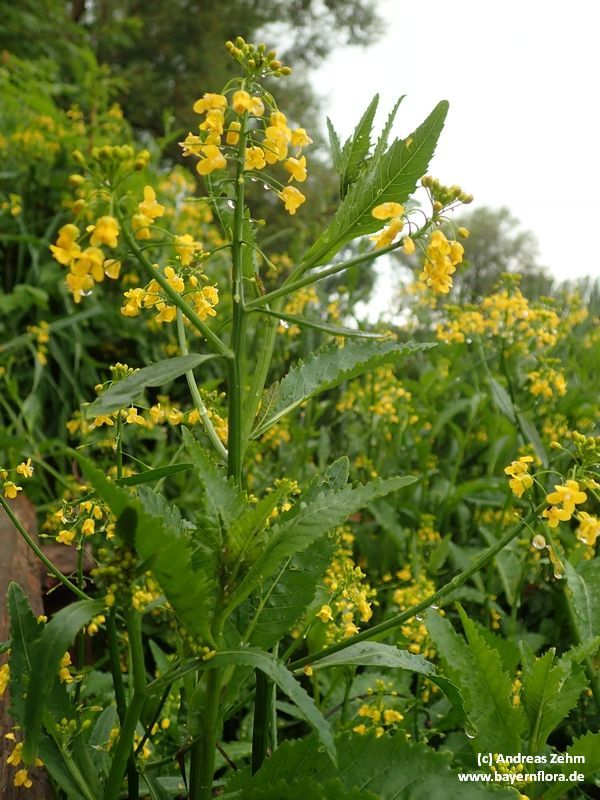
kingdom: Plantae
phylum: Tracheophyta
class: Magnoliopsida
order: Brassicales
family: Brassicaceae
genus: Rorippa
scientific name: Rorippa amphibia
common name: Great yellow-cress
